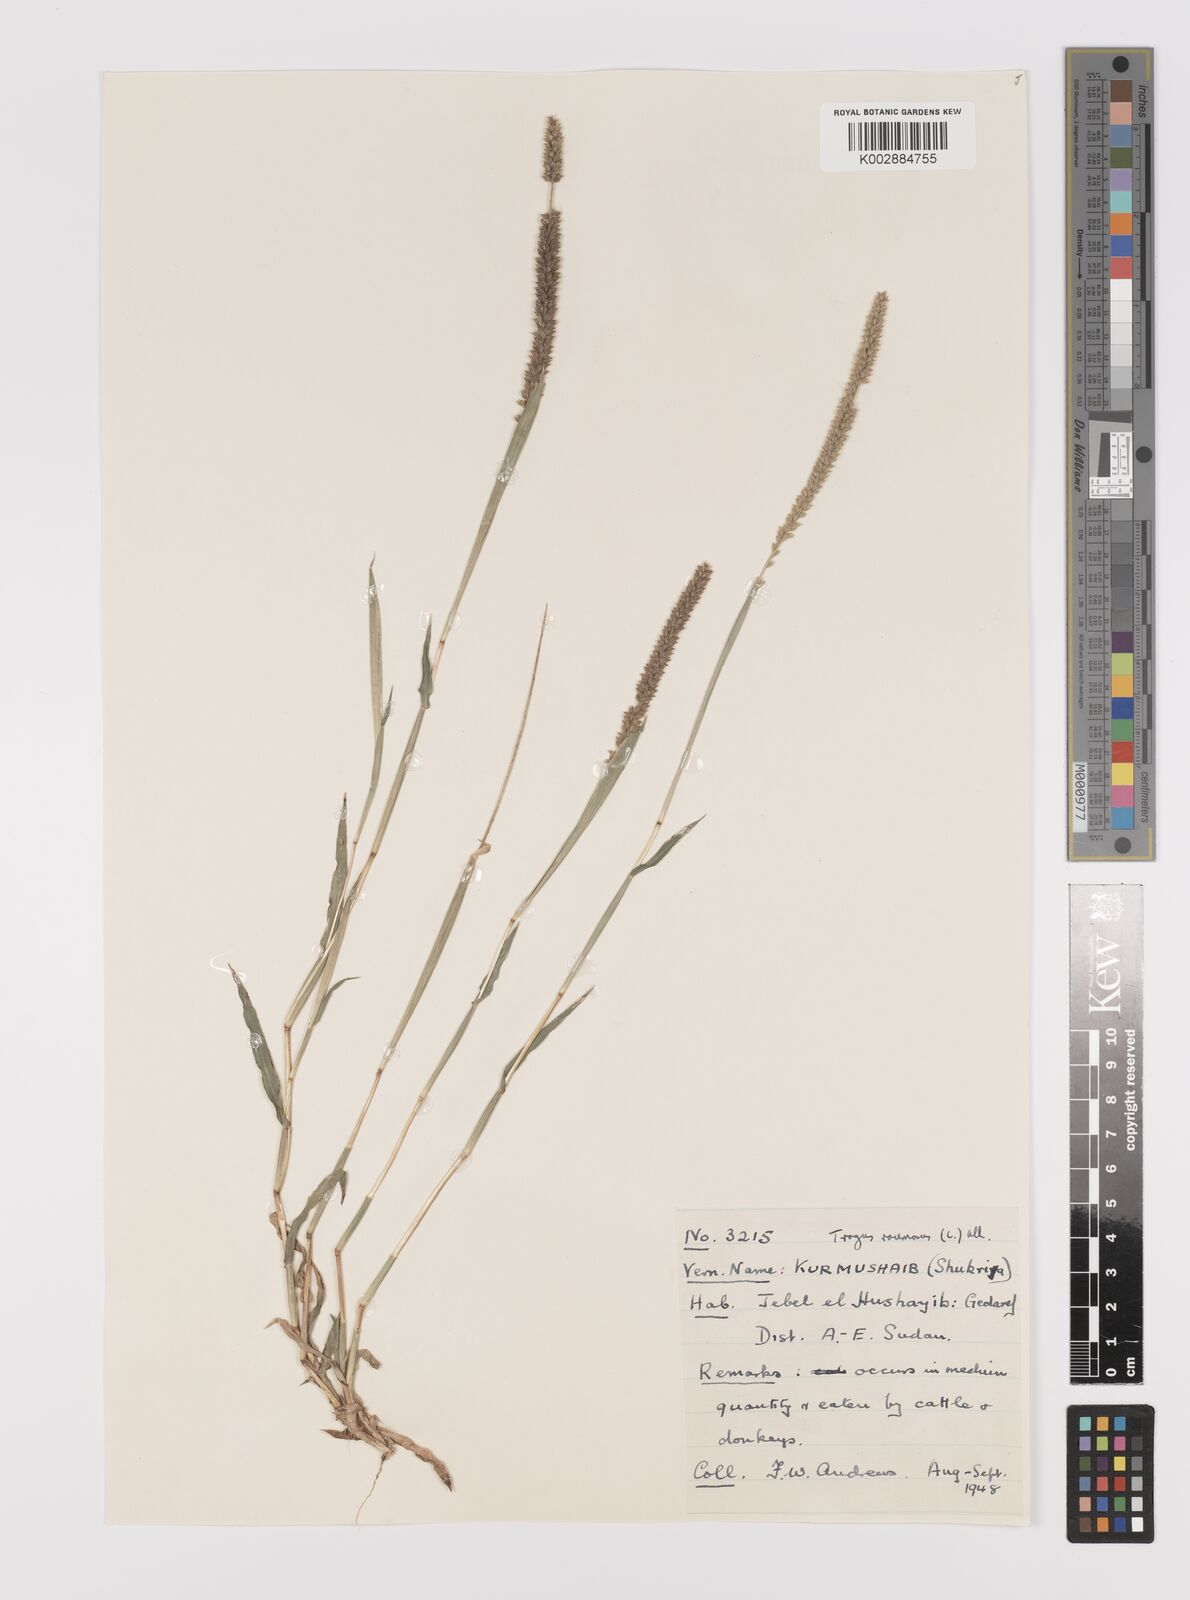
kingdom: Plantae
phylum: Tracheophyta
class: Liliopsida
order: Poales
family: Poaceae
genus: Tragus
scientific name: Tragus berteronianus
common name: African bur-grass
